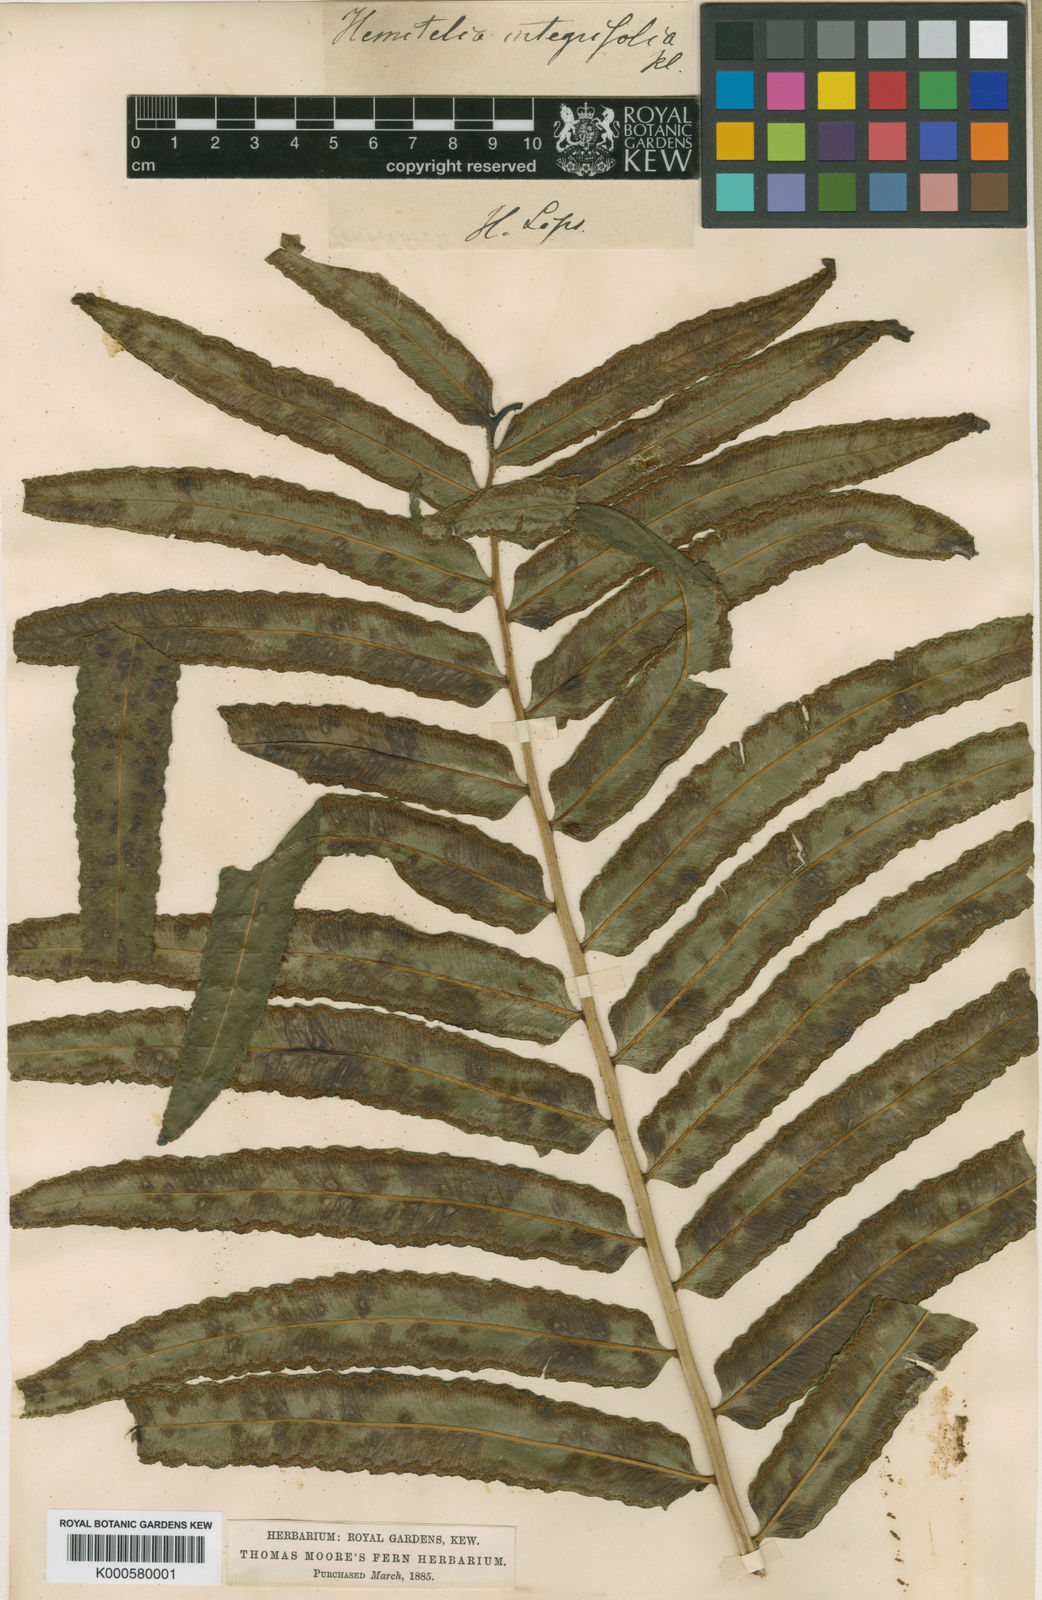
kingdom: Plantae
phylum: Tracheophyta
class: Polypodiopsida
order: Cyatheales
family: Cyatheaceae
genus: Cyathea
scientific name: Cyathea speciosa
